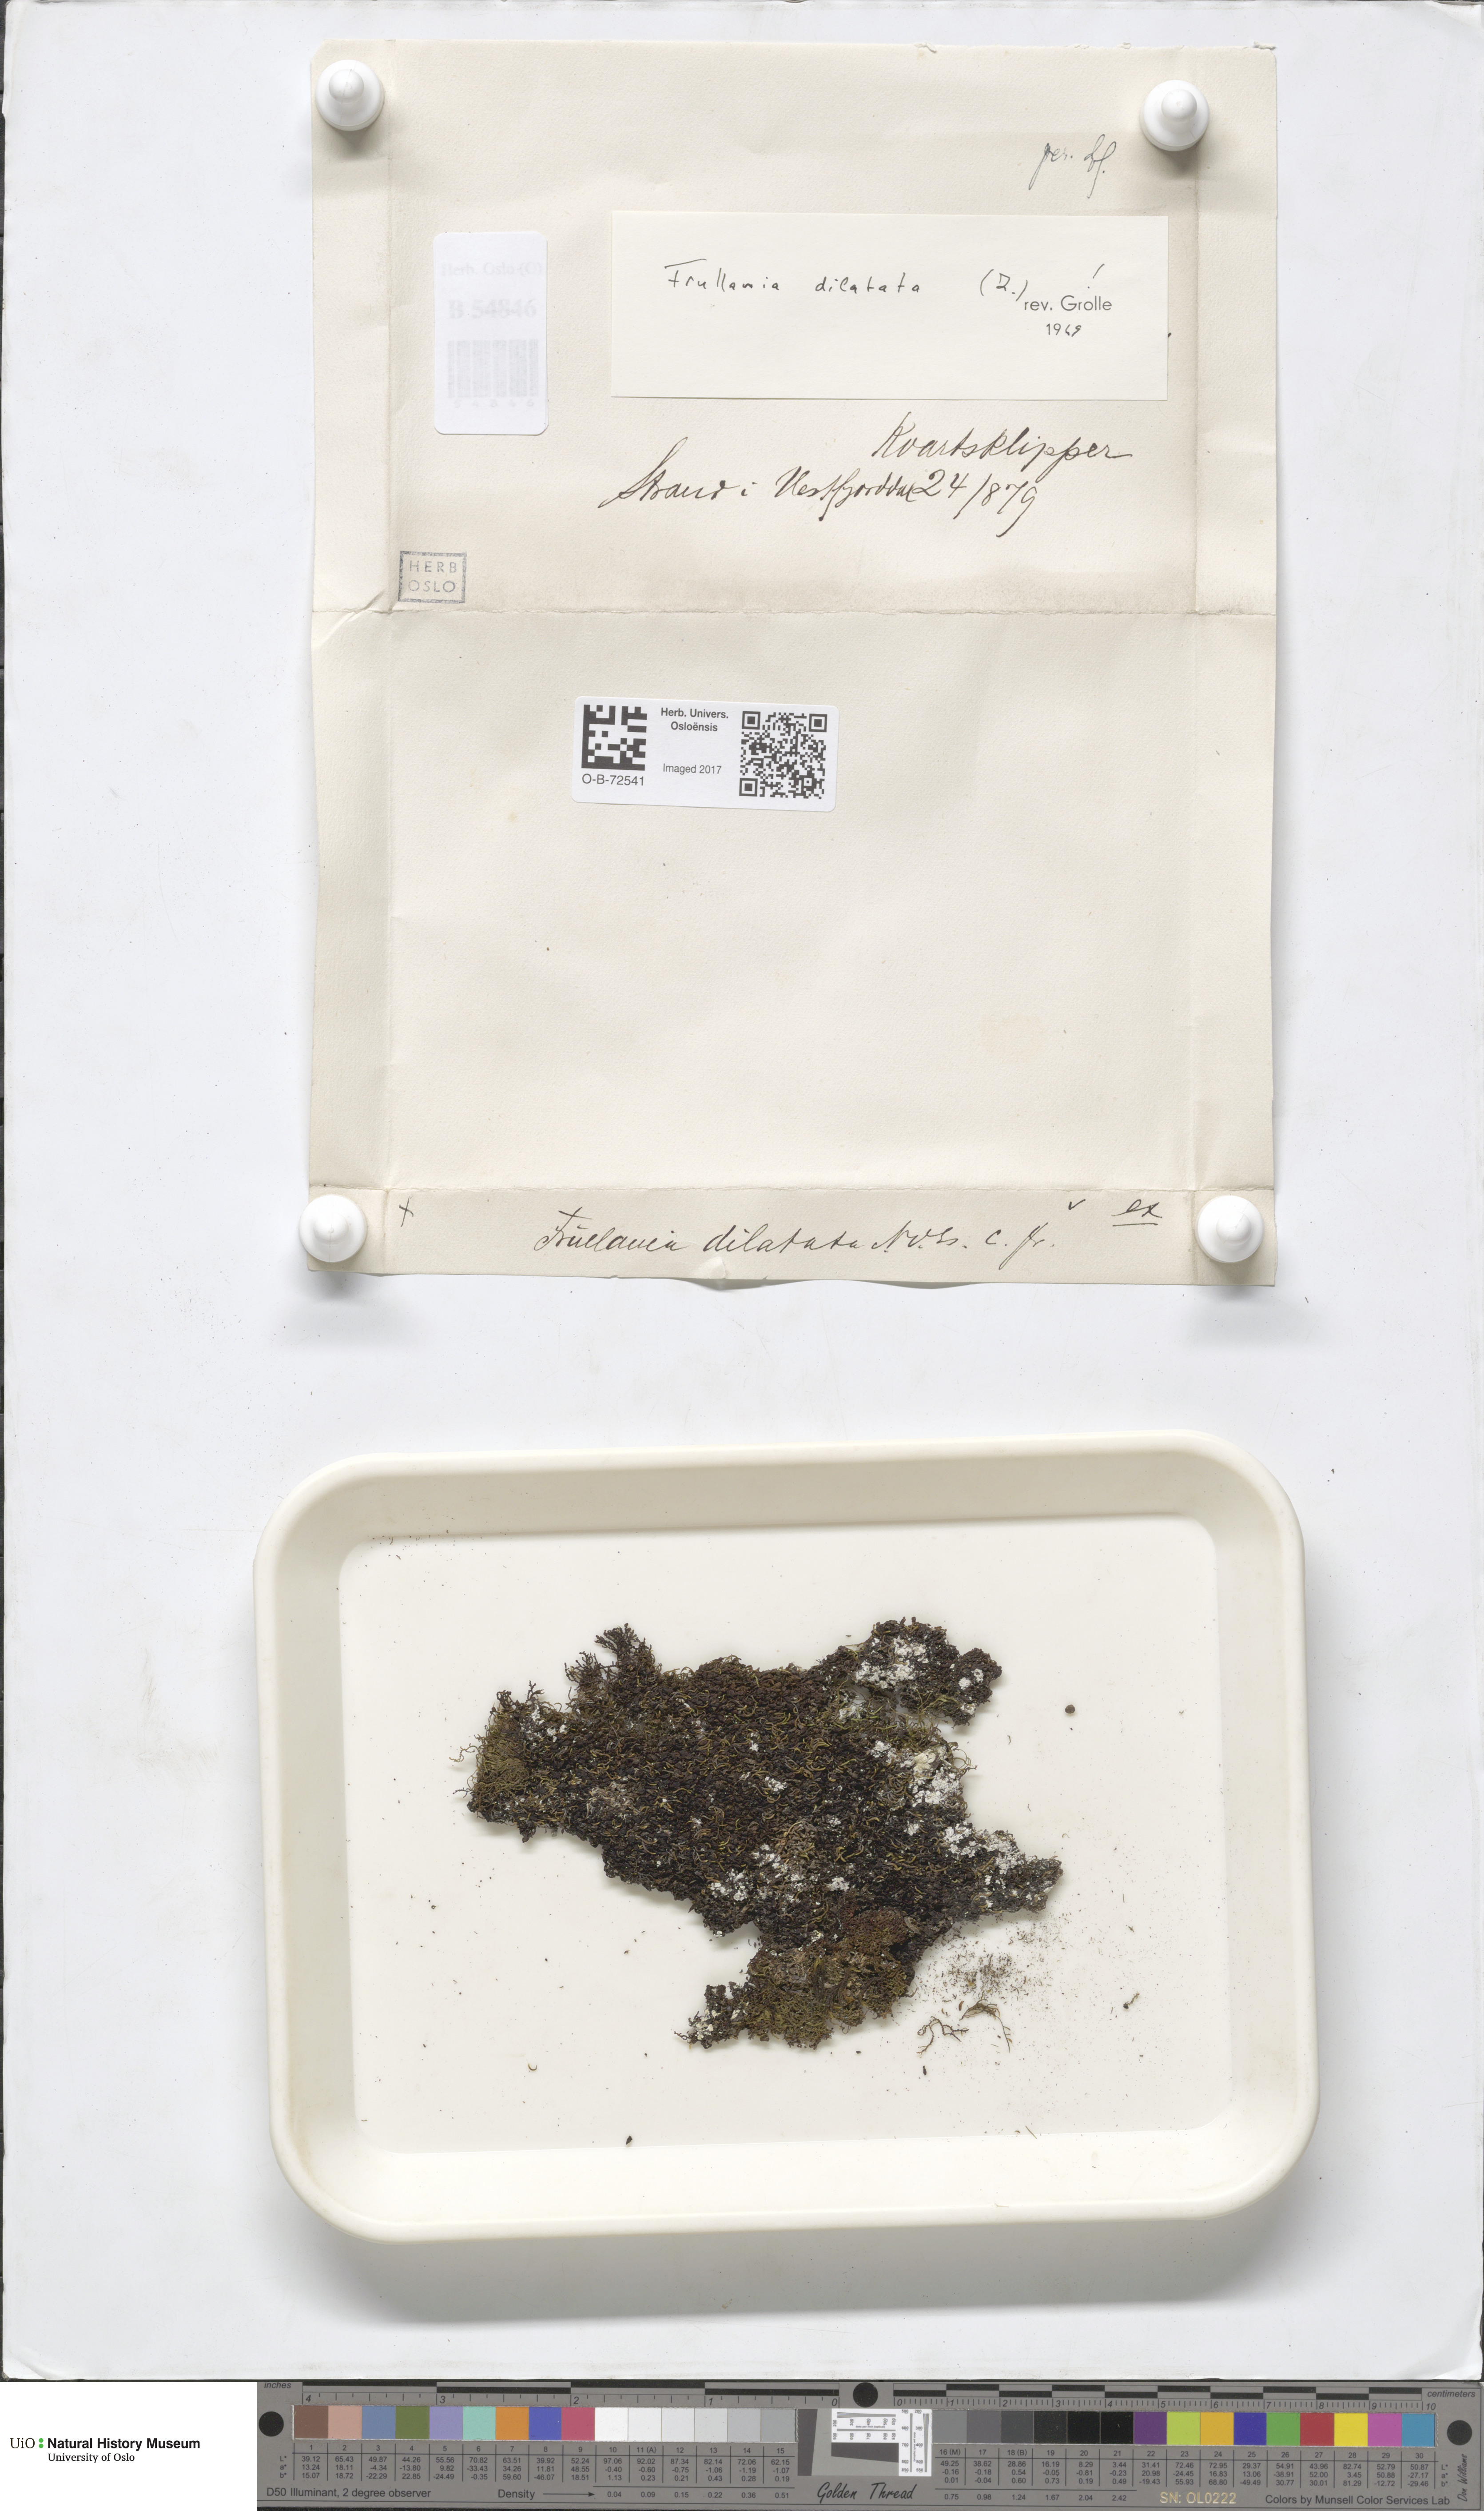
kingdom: Plantae
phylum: Marchantiophyta
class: Jungermanniopsida
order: Porellales
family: Frullaniaceae
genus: Frullania
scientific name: Frullania dilatata
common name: Dilated scalewort
